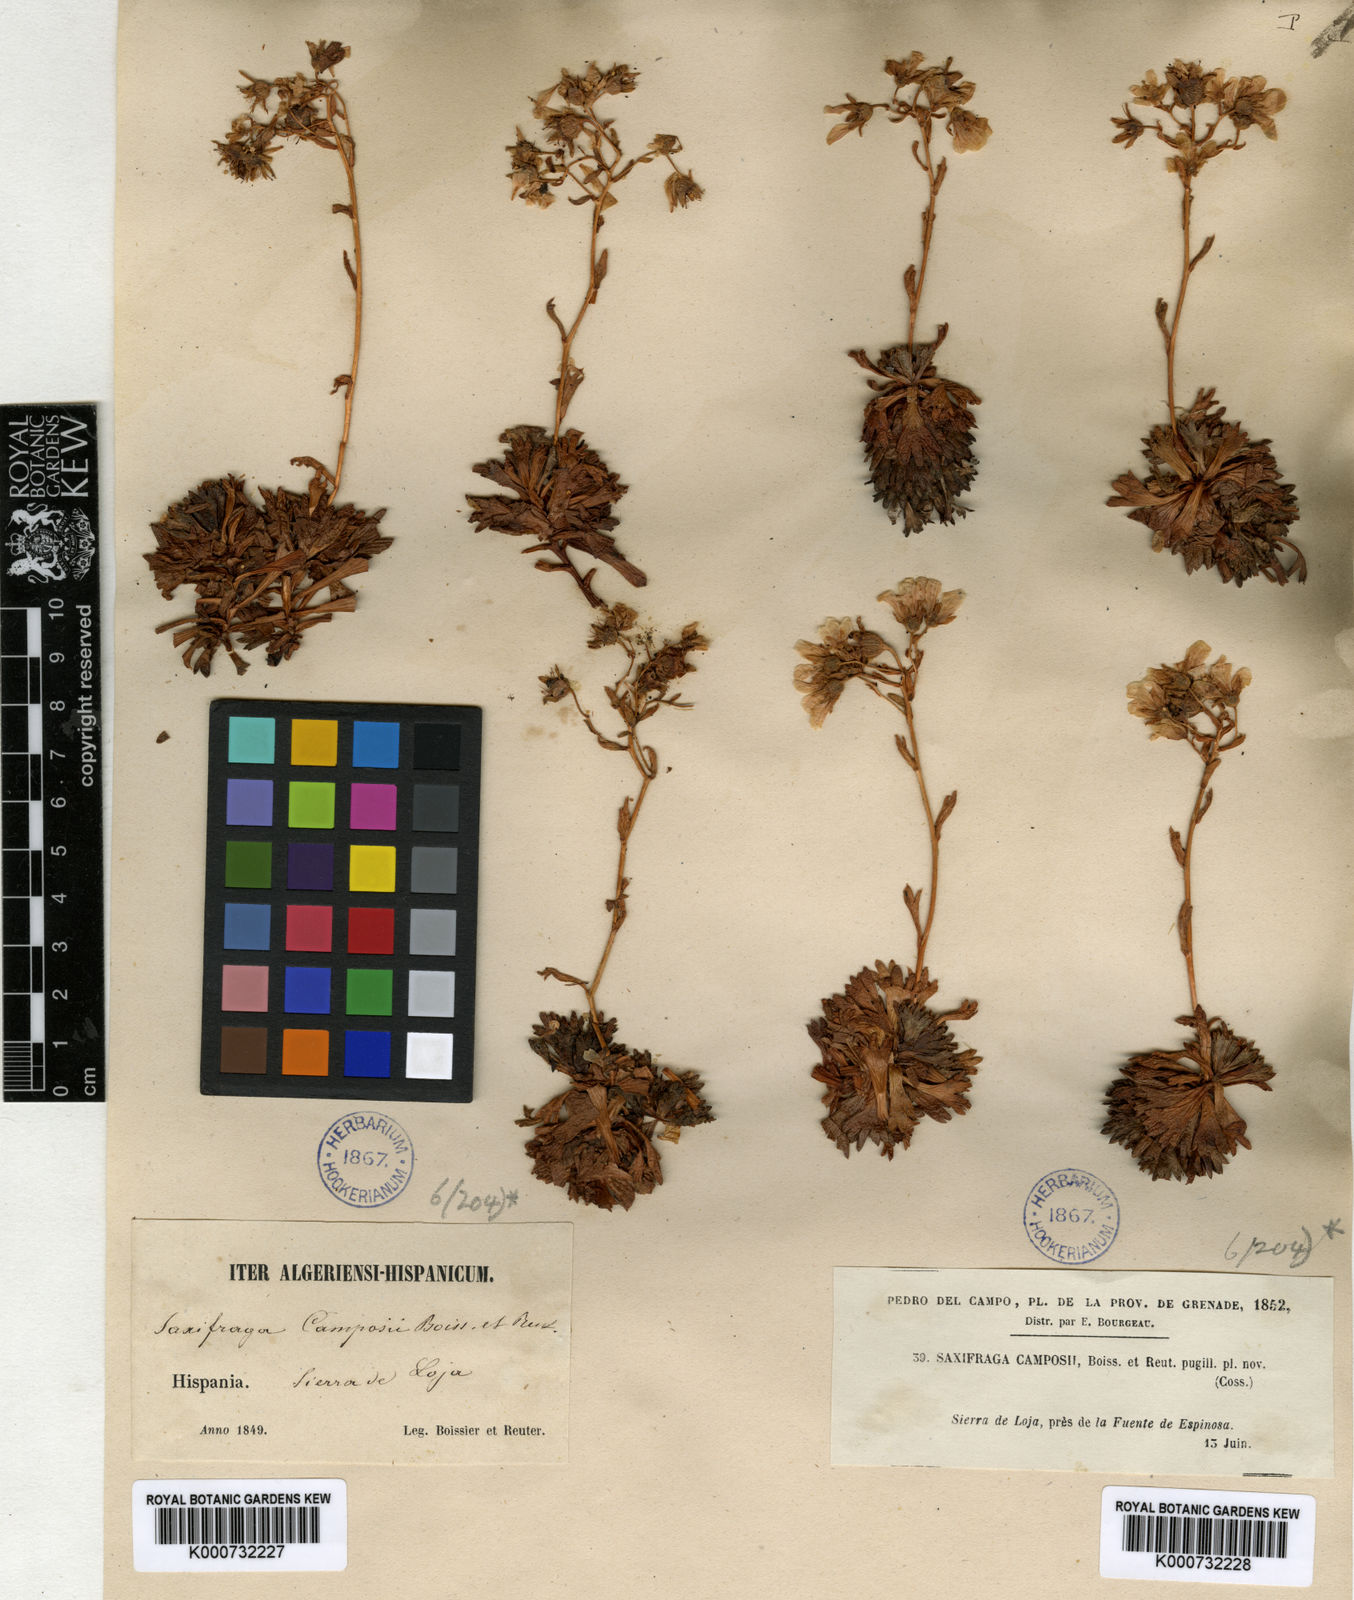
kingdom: Plantae
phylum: Tracheophyta
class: Magnoliopsida
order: Saxifragales
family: Saxifragaceae
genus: Saxifraga
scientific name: Saxifraga camposii
